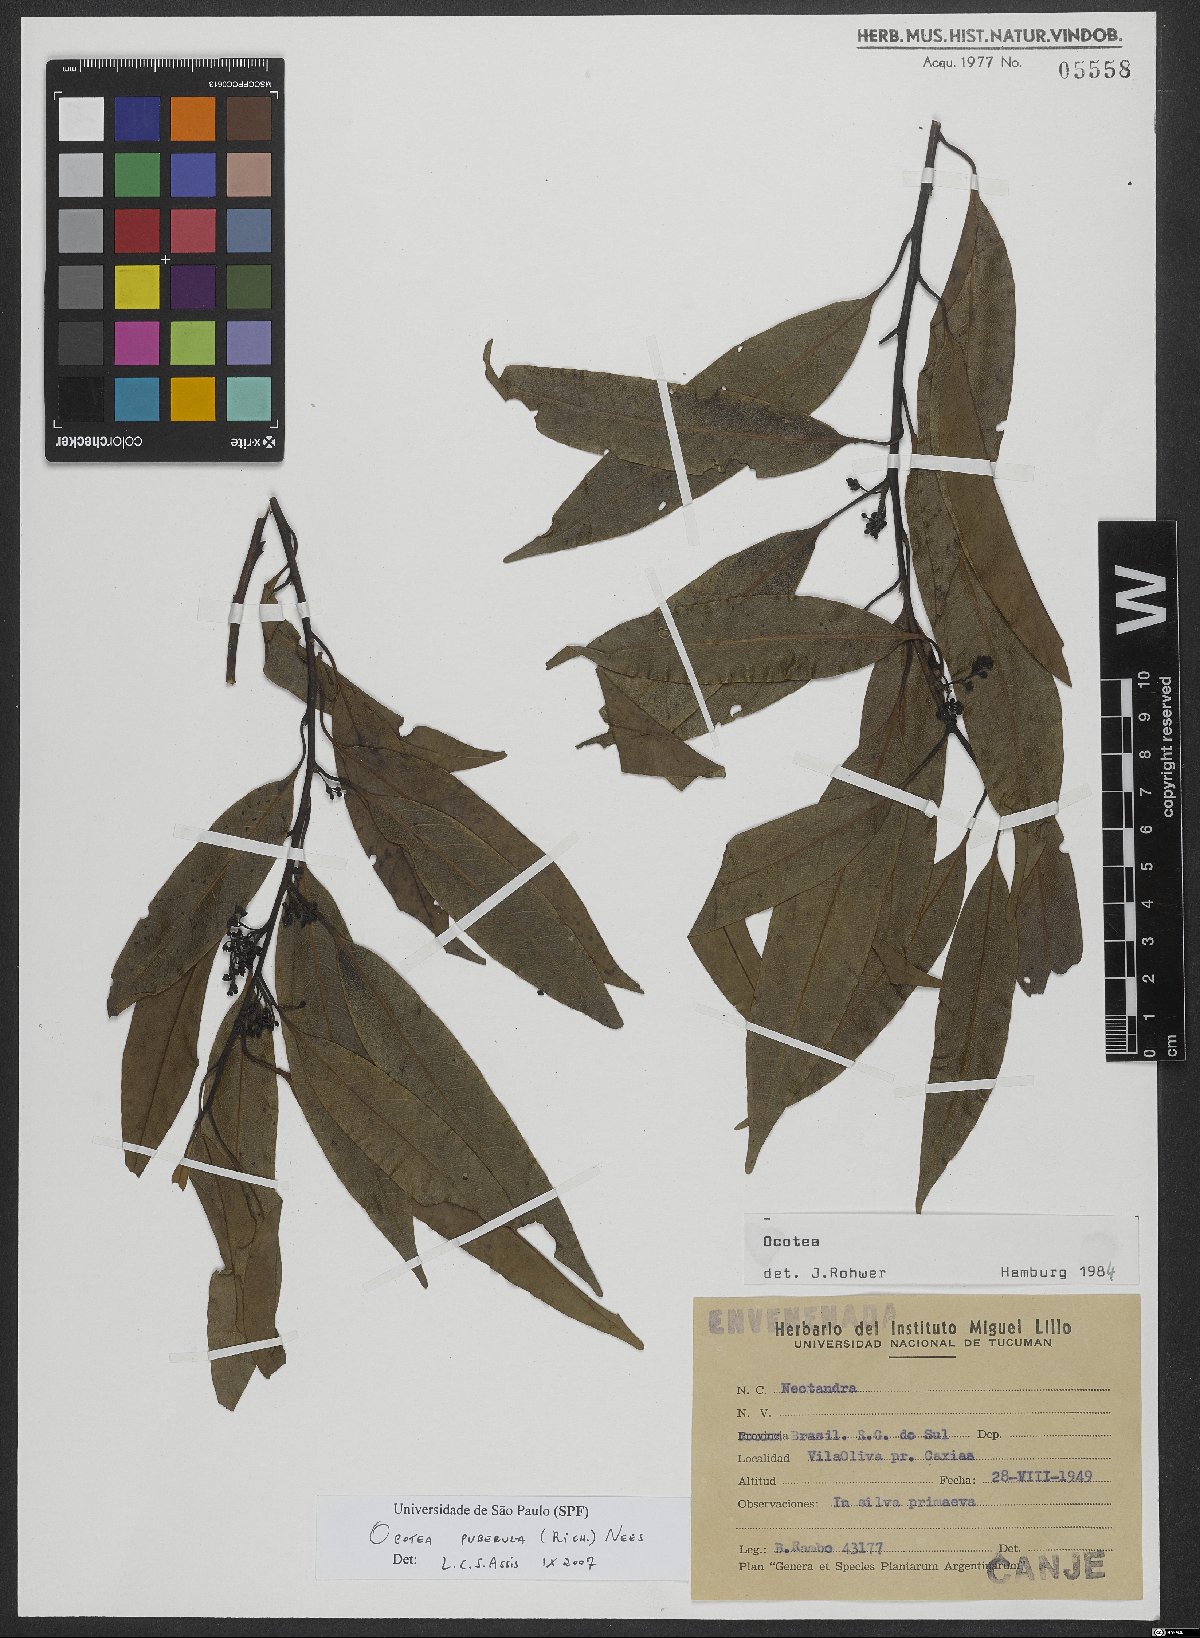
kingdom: Plantae
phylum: Tracheophyta
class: Magnoliopsida
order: Laurales
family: Lauraceae
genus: Ocotea
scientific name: Ocotea puberula
